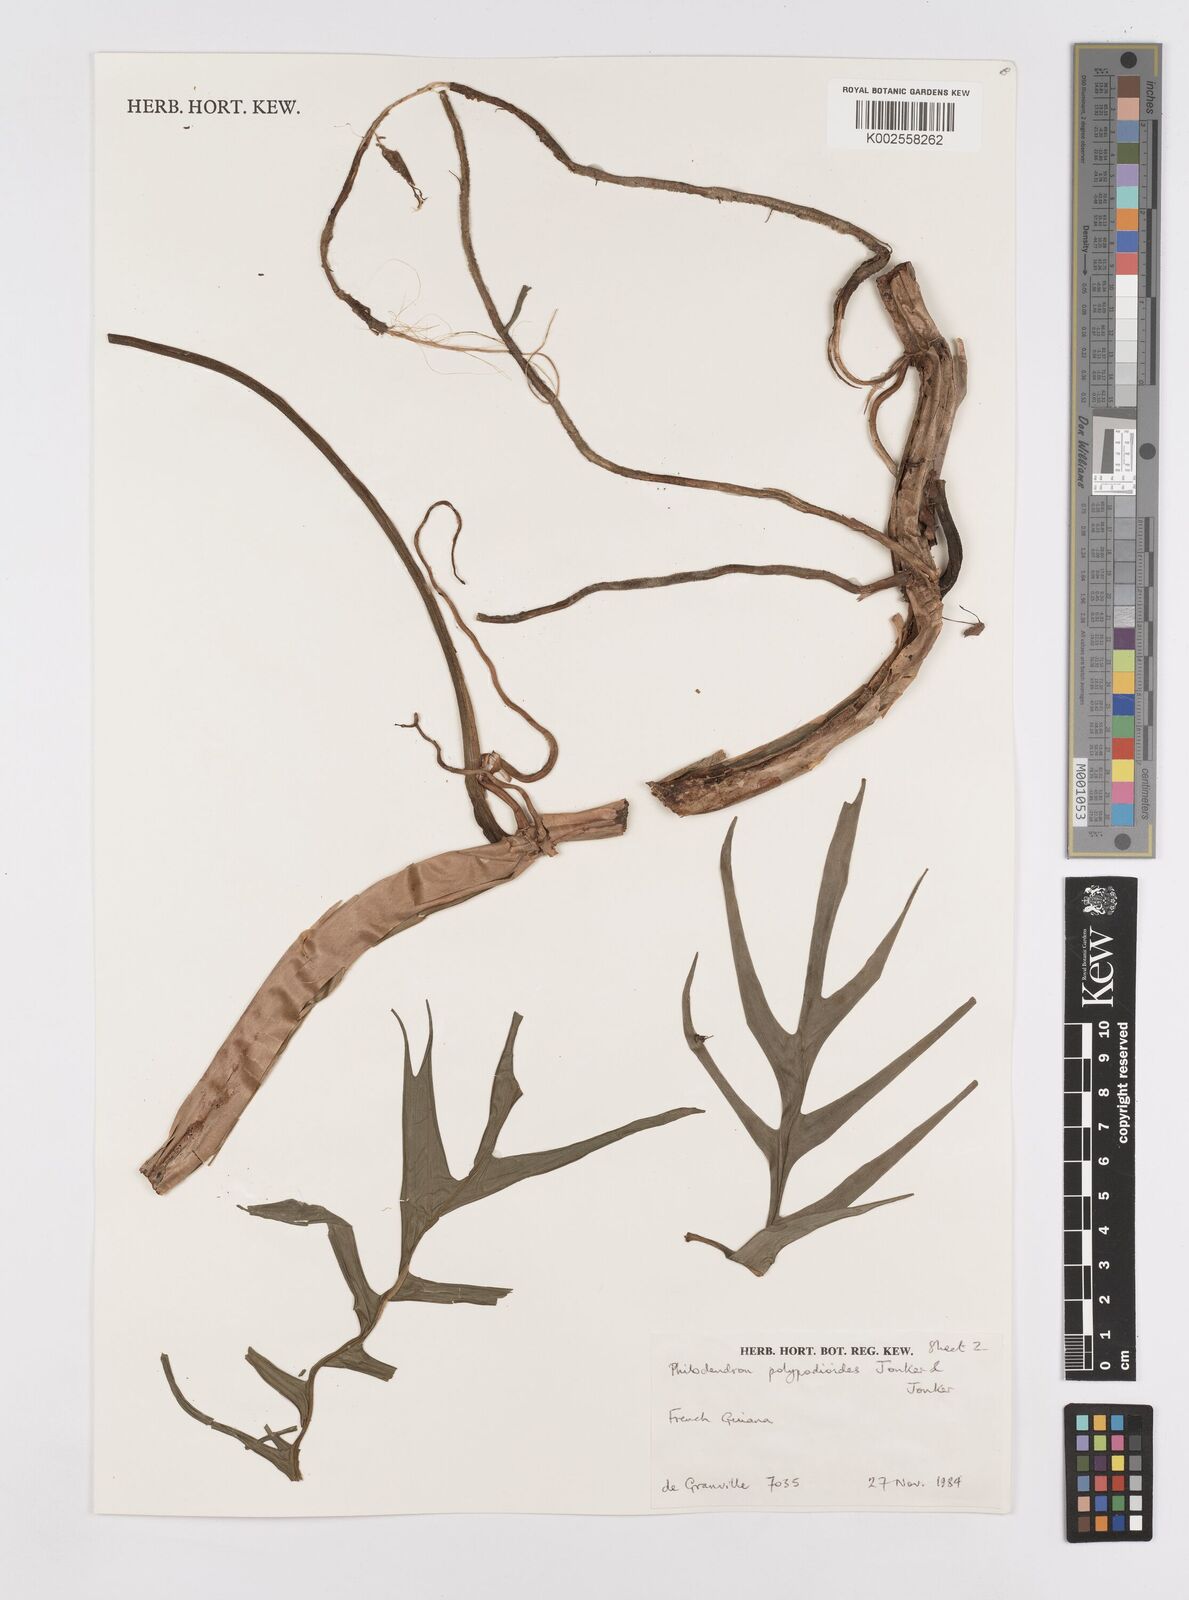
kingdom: Plantae
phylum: Tracheophyta
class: Liliopsida
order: Alismatales
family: Araceae
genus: Philodendron
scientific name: Philodendron pedatum
